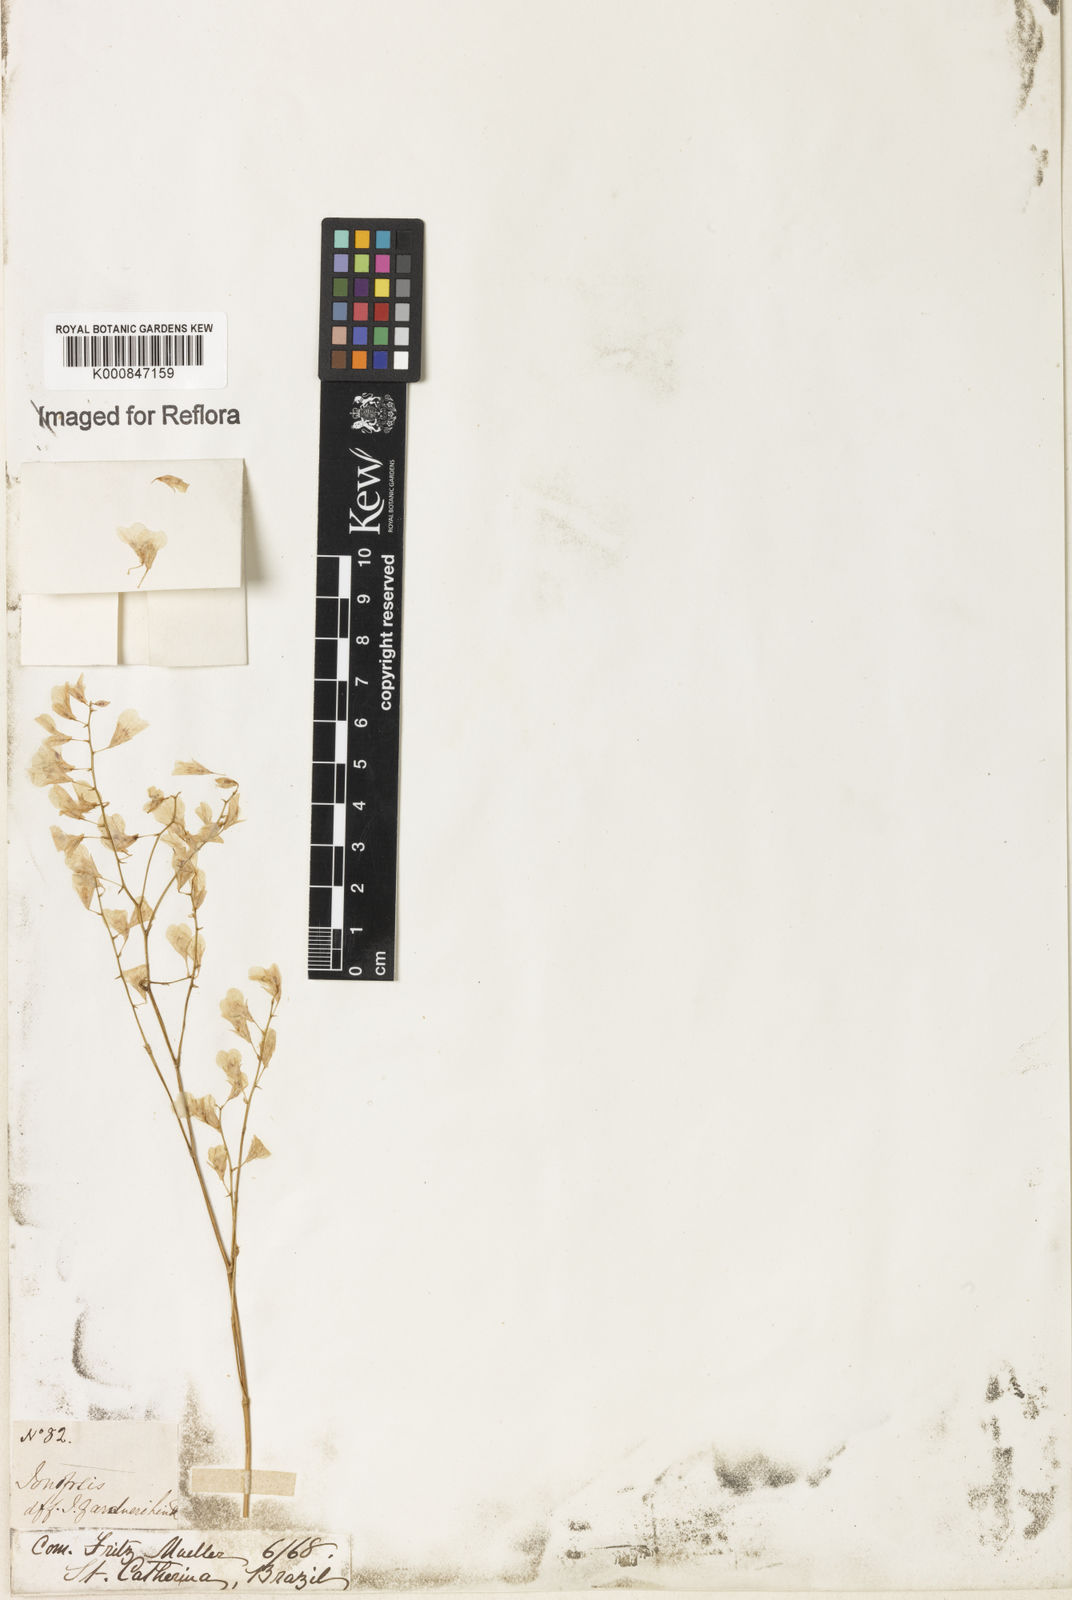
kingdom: Plantae
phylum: Tracheophyta
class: Liliopsida
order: Asparagales
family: Orchidaceae
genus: Ionopsis
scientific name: Ionopsis utricularioides
